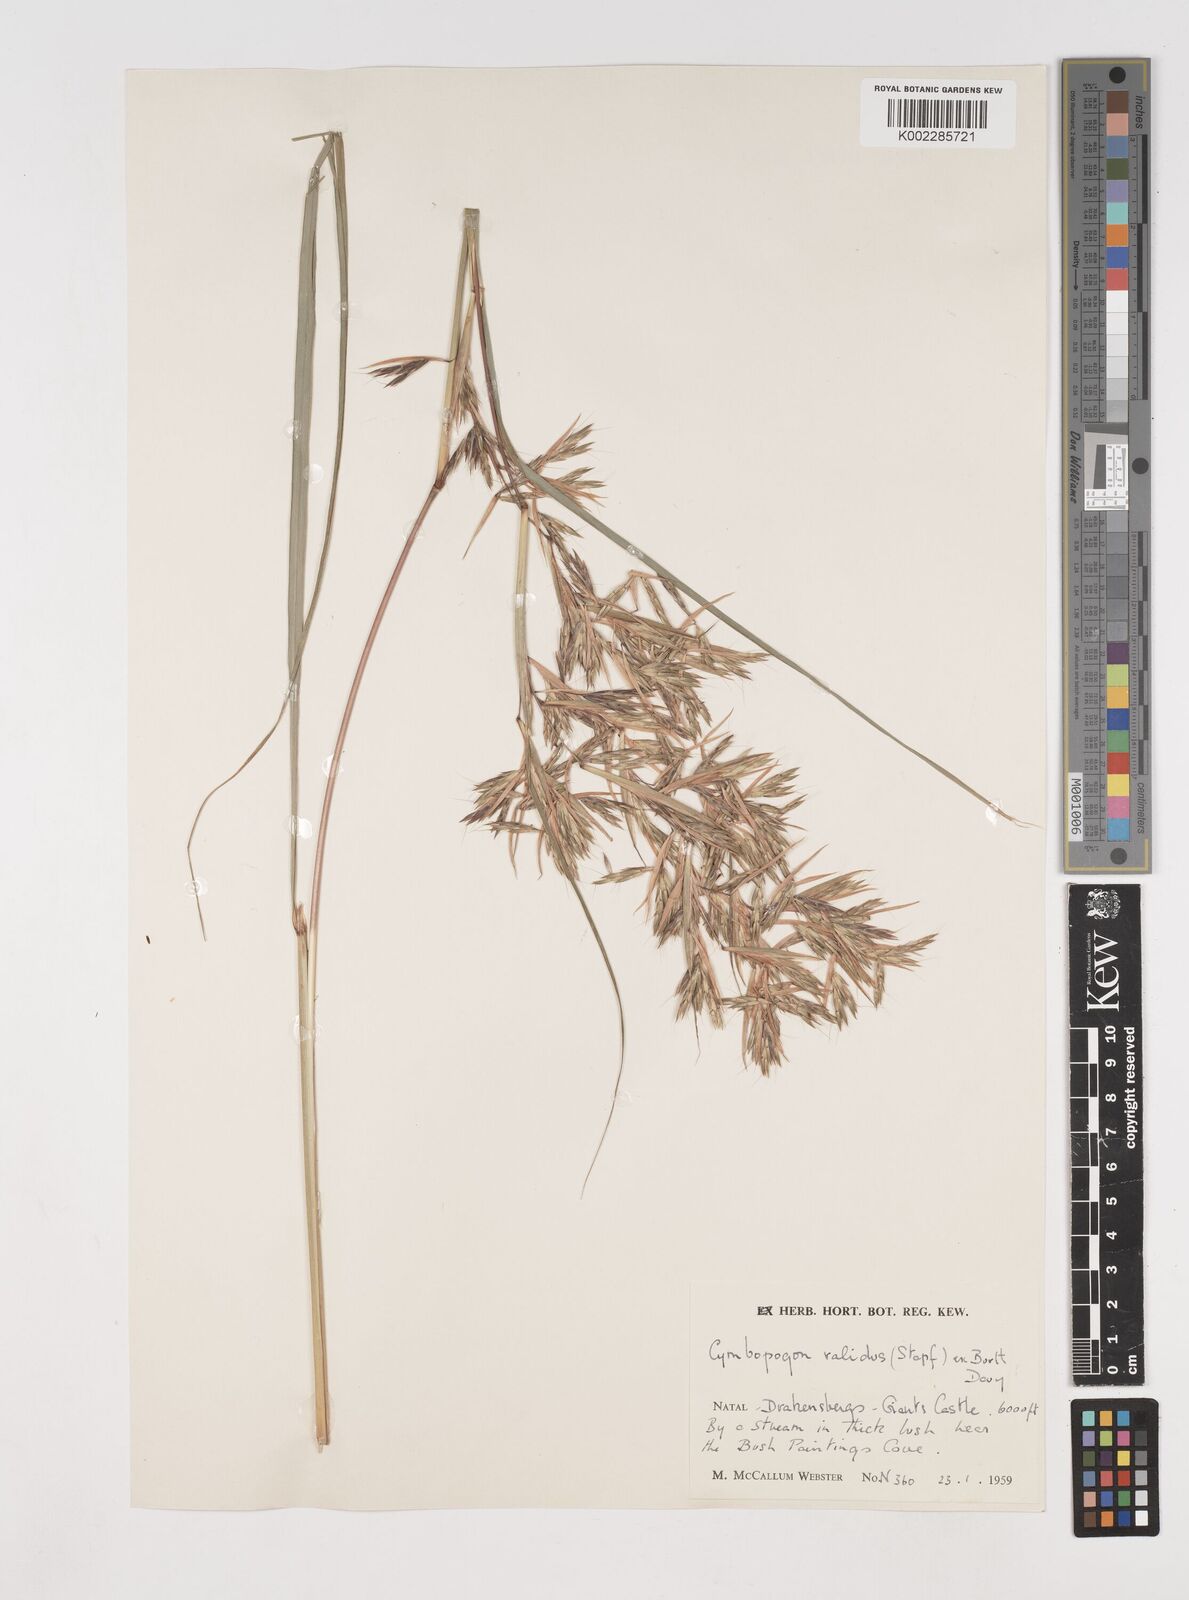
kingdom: Plantae
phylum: Tracheophyta
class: Liliopsida
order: Poales
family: Poaceae
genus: Cymbopogon
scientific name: Cymbopogon dieterlenii
